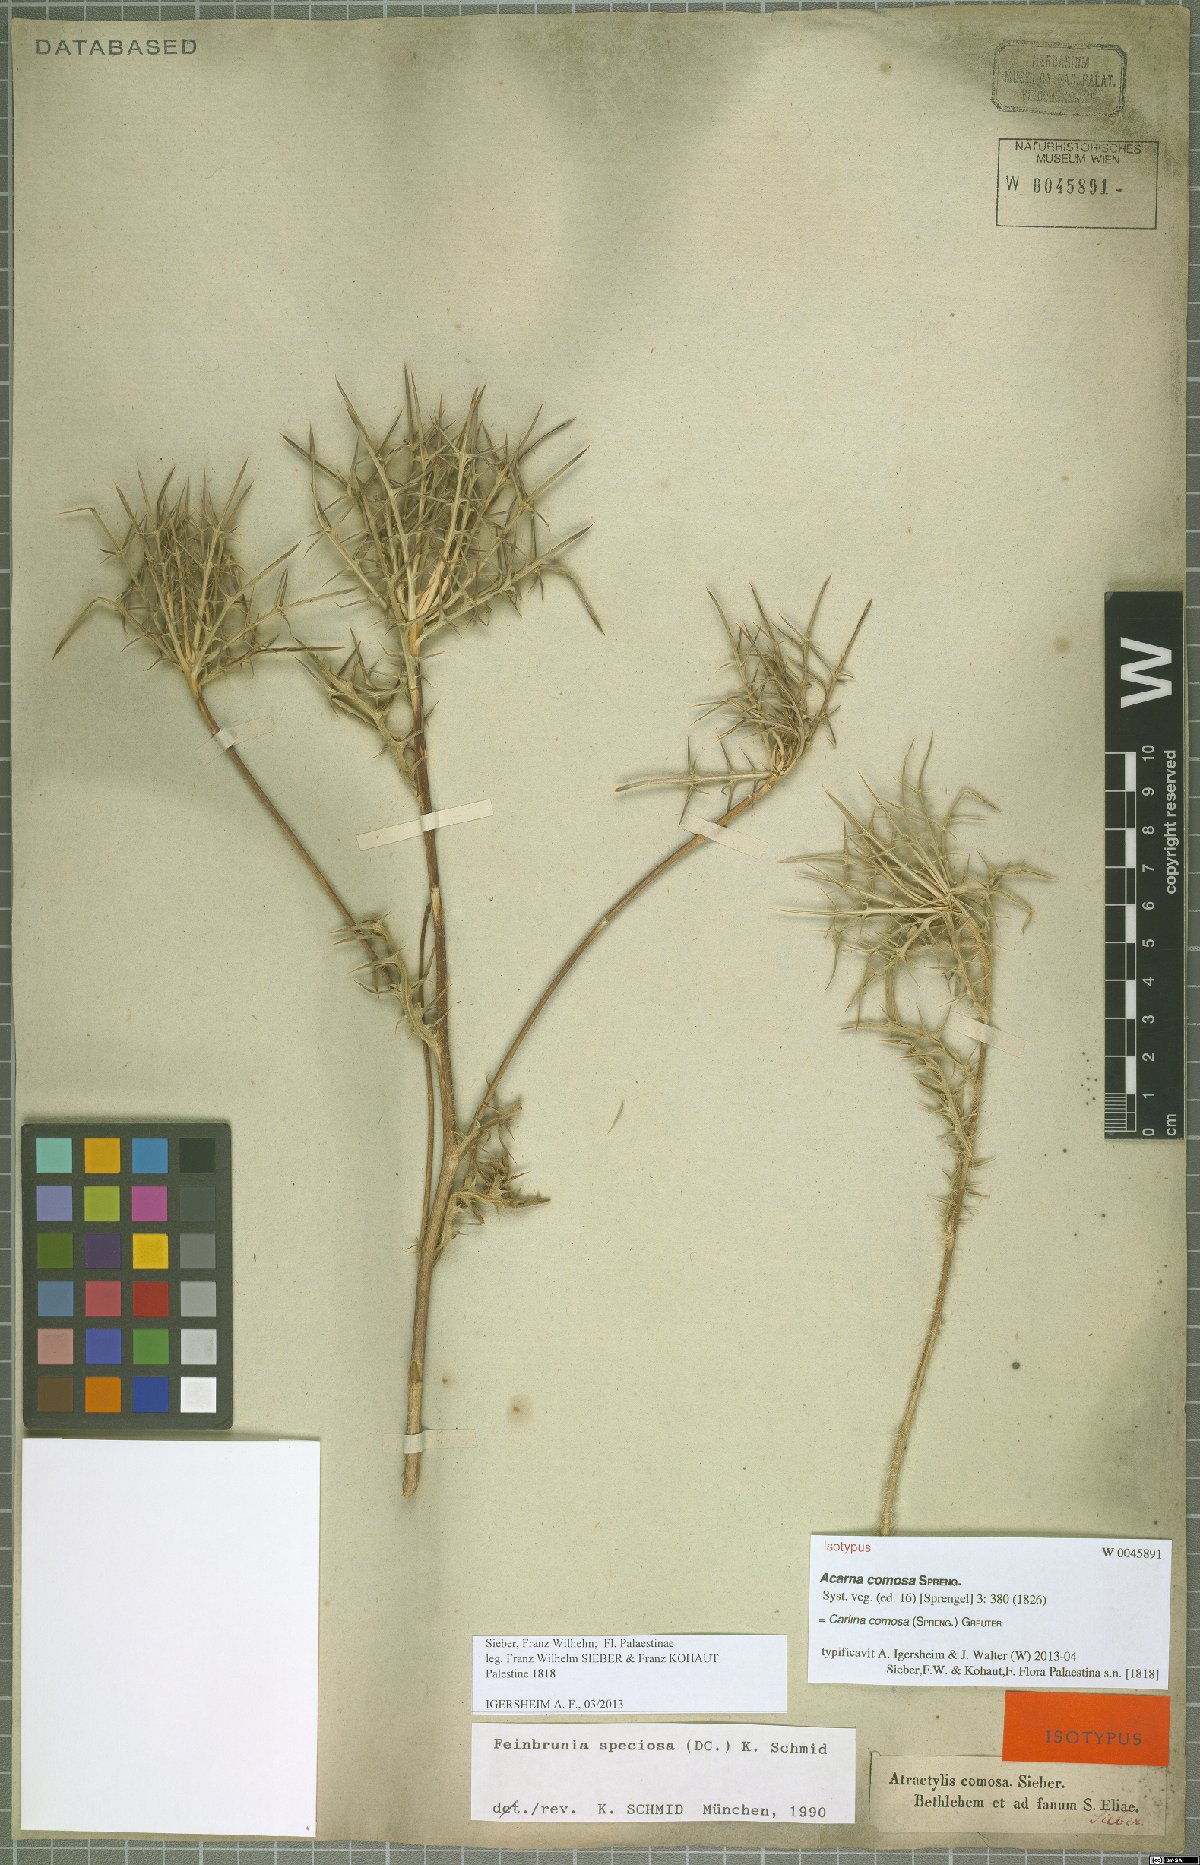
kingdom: Plantae
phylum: Tracheophyta
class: Magnoliopsida
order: Asterales
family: Asteraceae
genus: Chamaeleon
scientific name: Chamaeleon comosus
